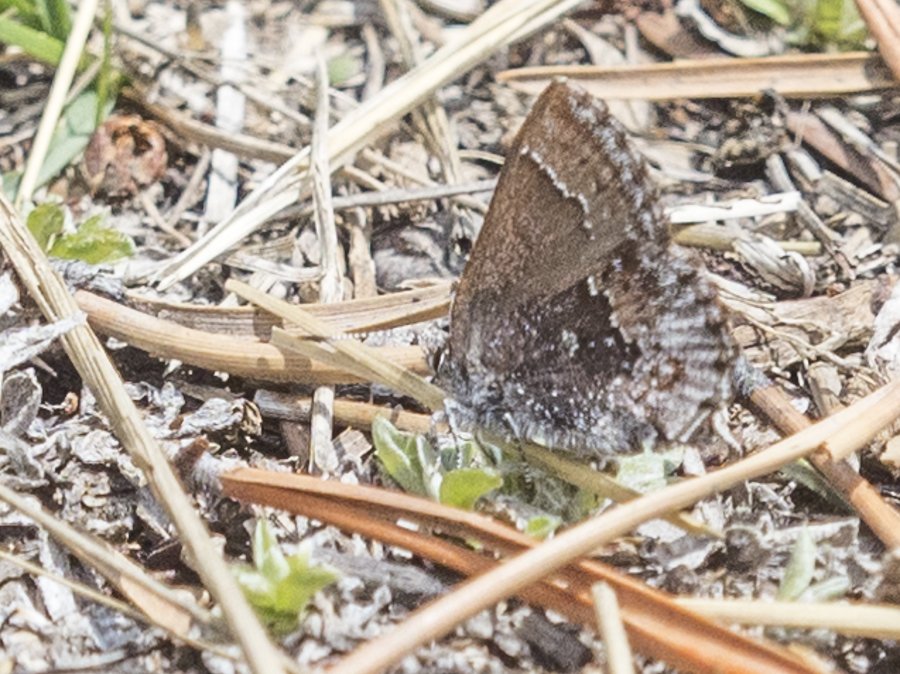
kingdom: Animalia
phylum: Arthropoda
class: Insecta
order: Lepidoptera
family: Lycaenidae
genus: Callophrys
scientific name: Callophrys polios
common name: Hoary Elfin
